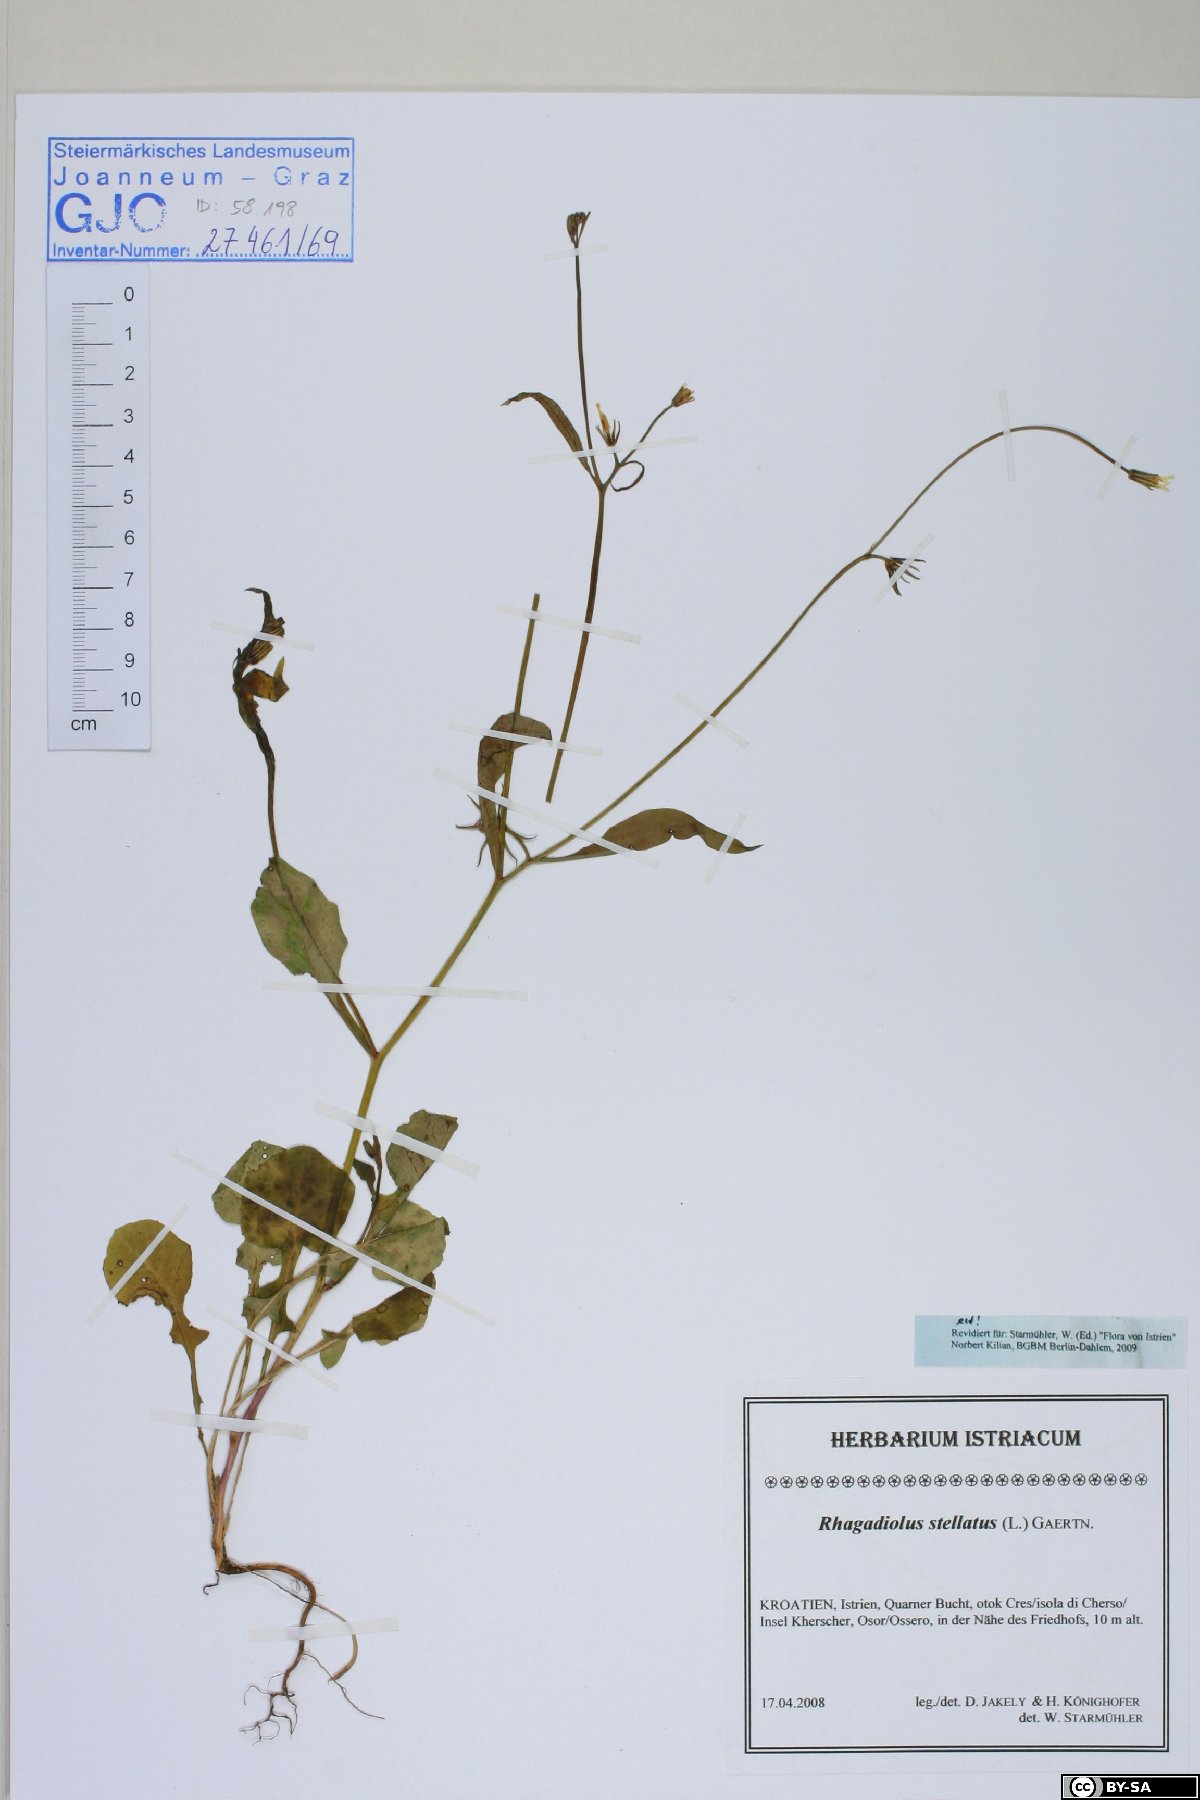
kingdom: Plantae
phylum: Tracheophyta
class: Magnoliopsida
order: Asterales
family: Asteraceae
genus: Rhagadiolus
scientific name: Rhagadiolus stellatus
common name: Star hawkbit
